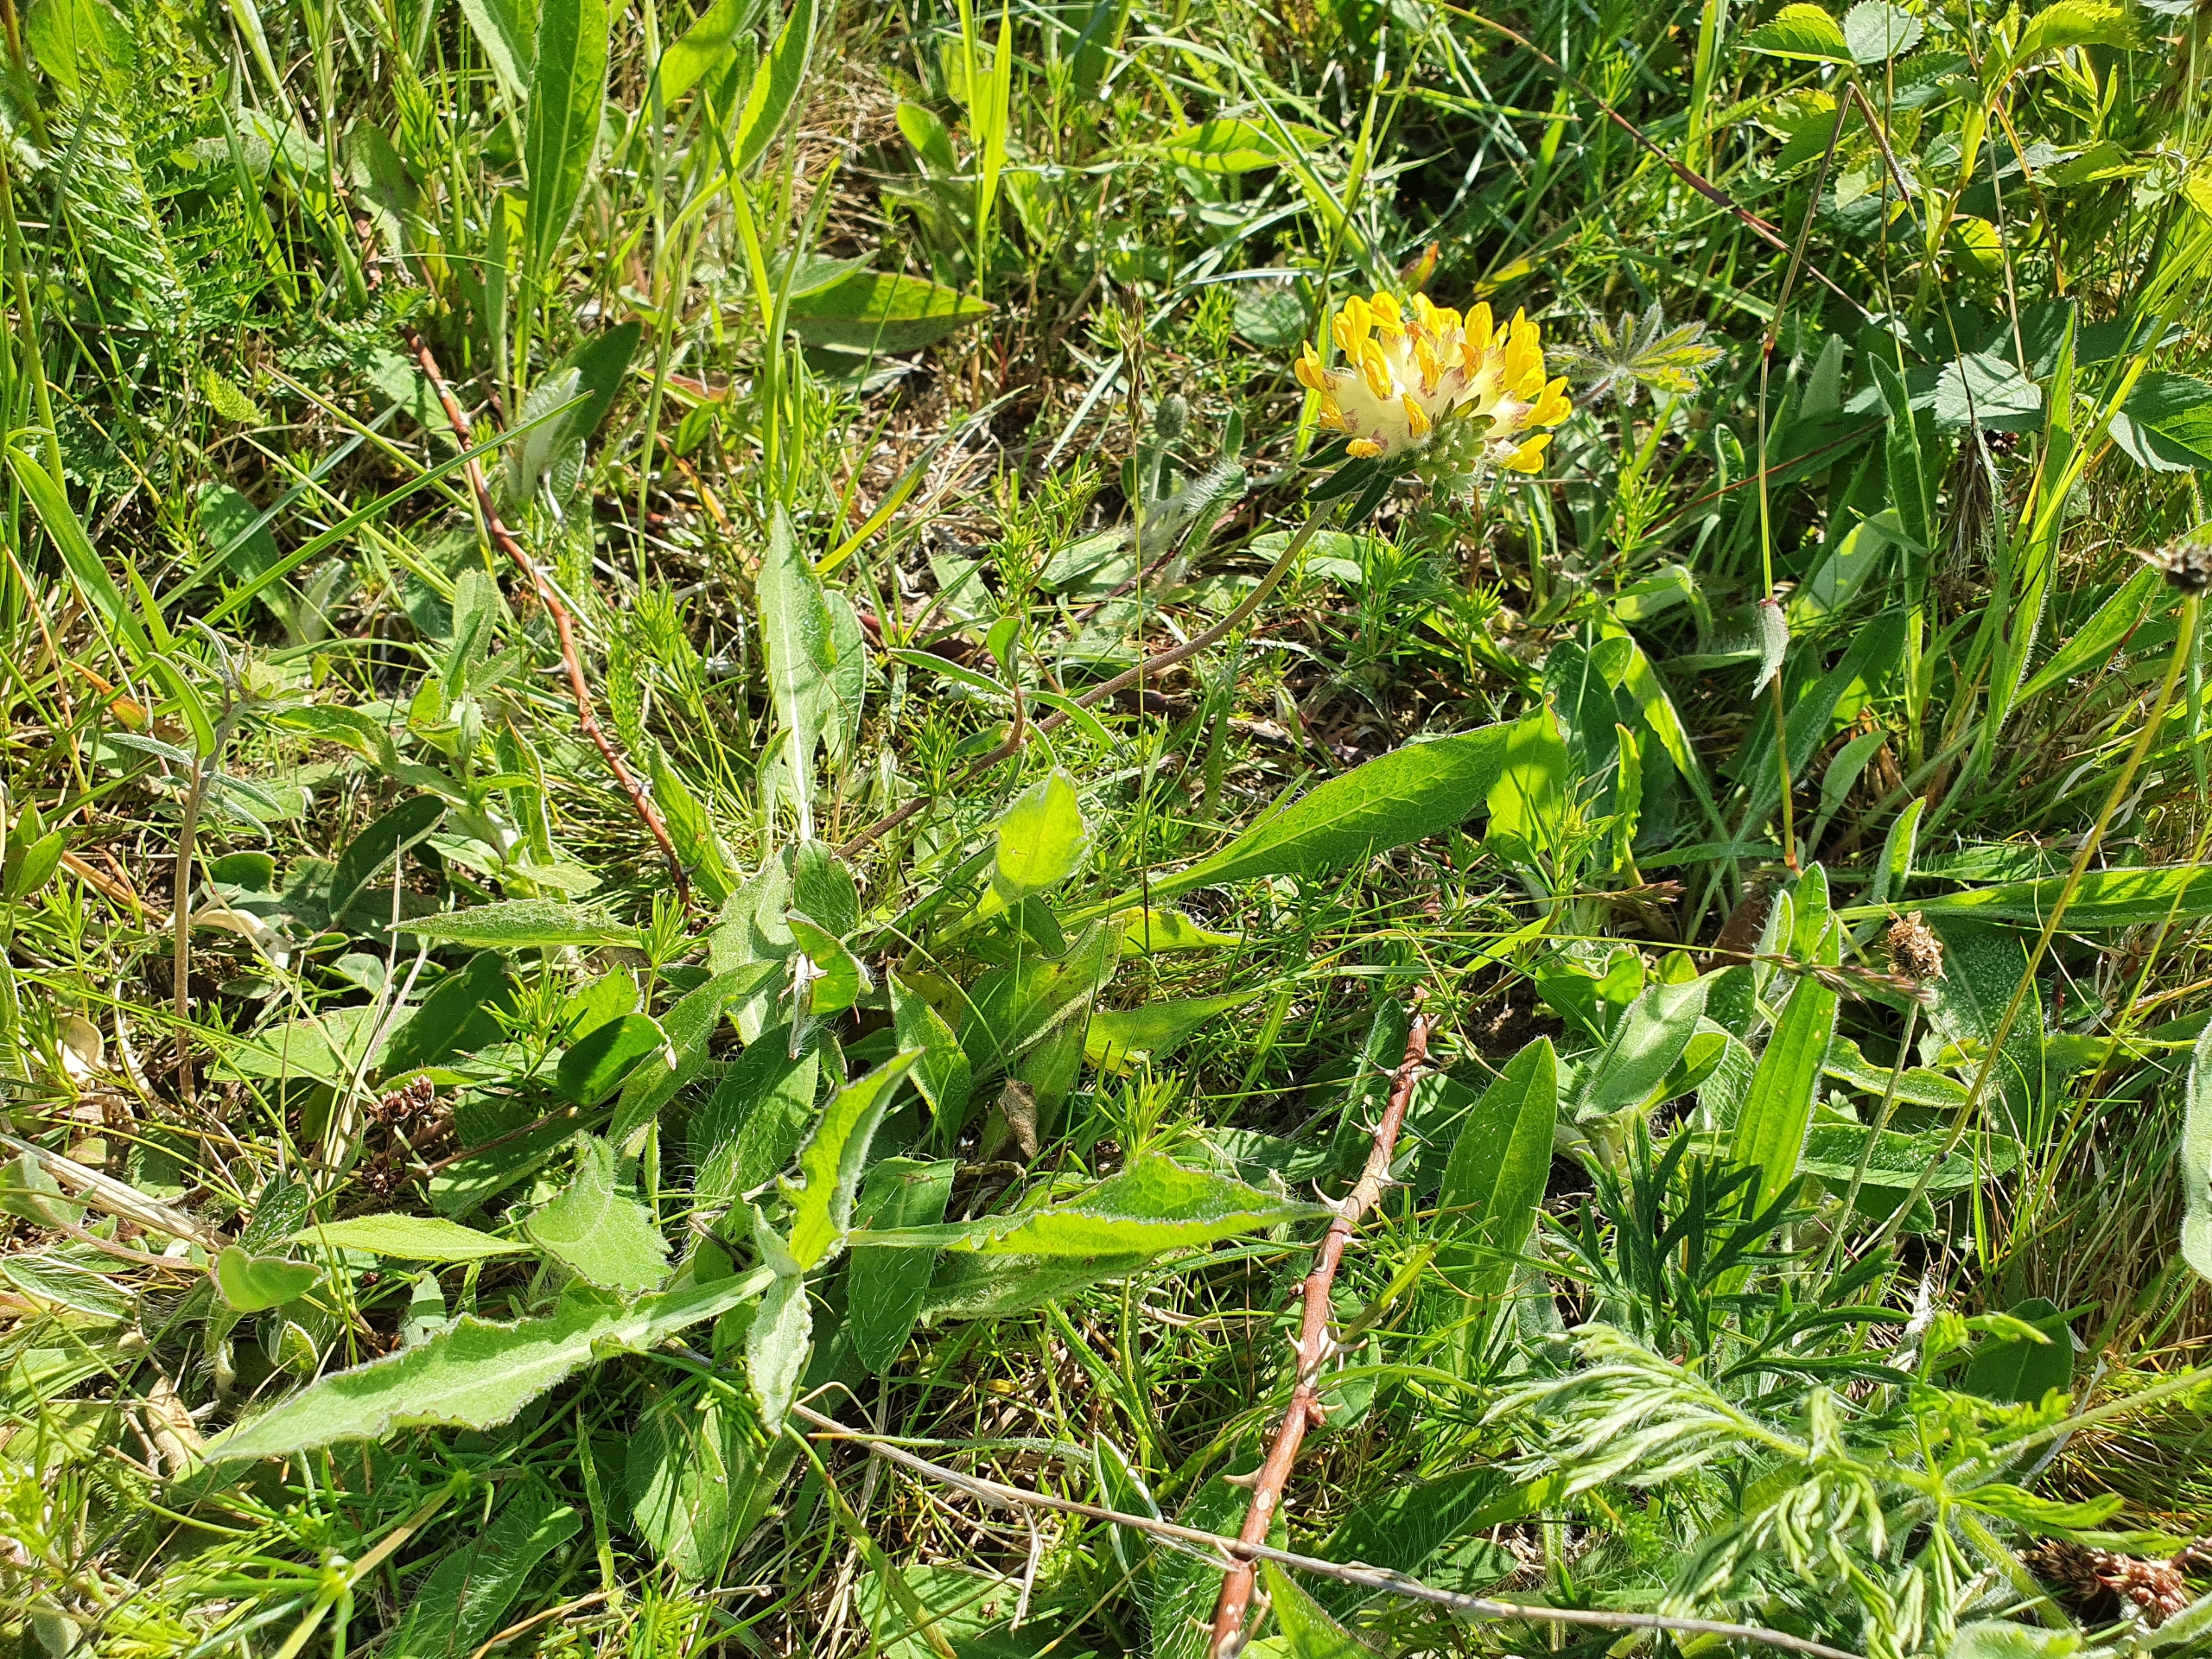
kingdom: Plantae
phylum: Tracheophyta
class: Magnoliopsida
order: Fabales
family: Fabaceae
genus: Anthyllis
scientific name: Anthyllis vulneraria
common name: Rundbælg
